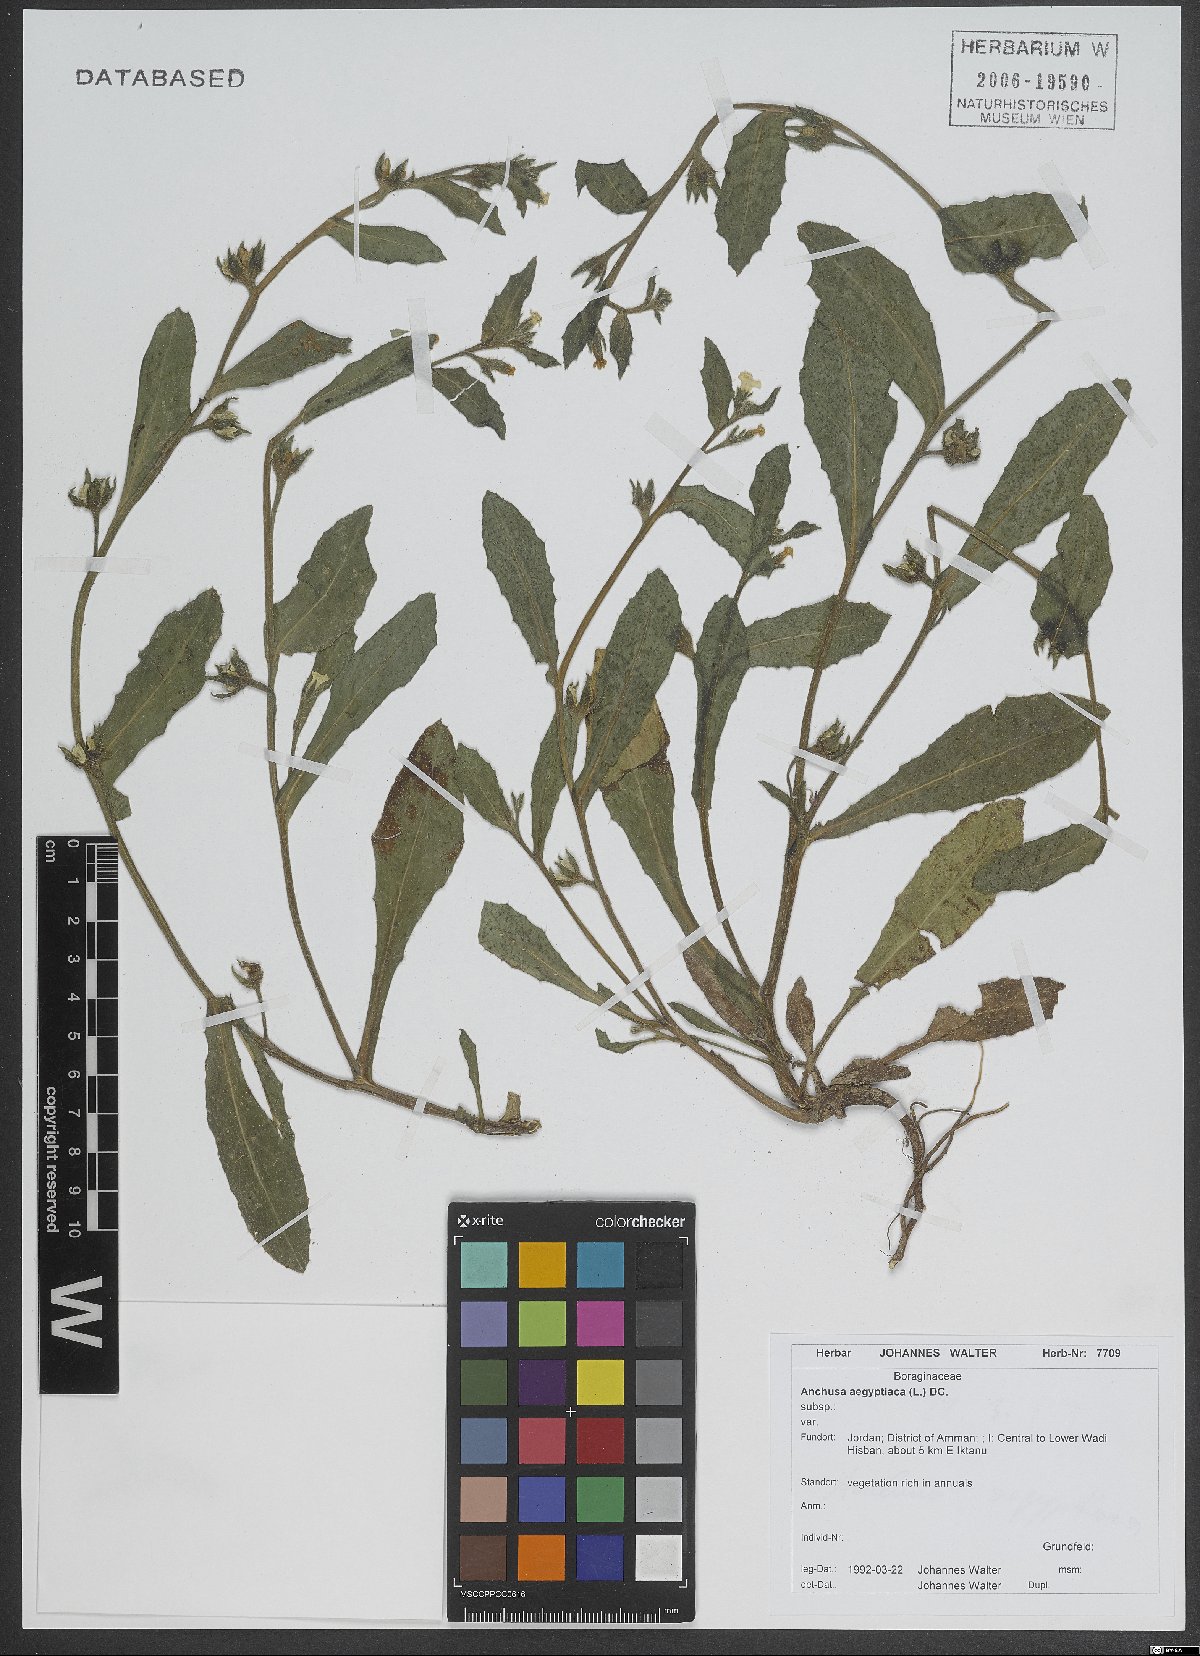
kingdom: Plantae
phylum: Tracheophyta
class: Magnoliopsida
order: Boraginales
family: Boraginaceae
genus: Lycopsis
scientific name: Lycopsis aegyptiaca
